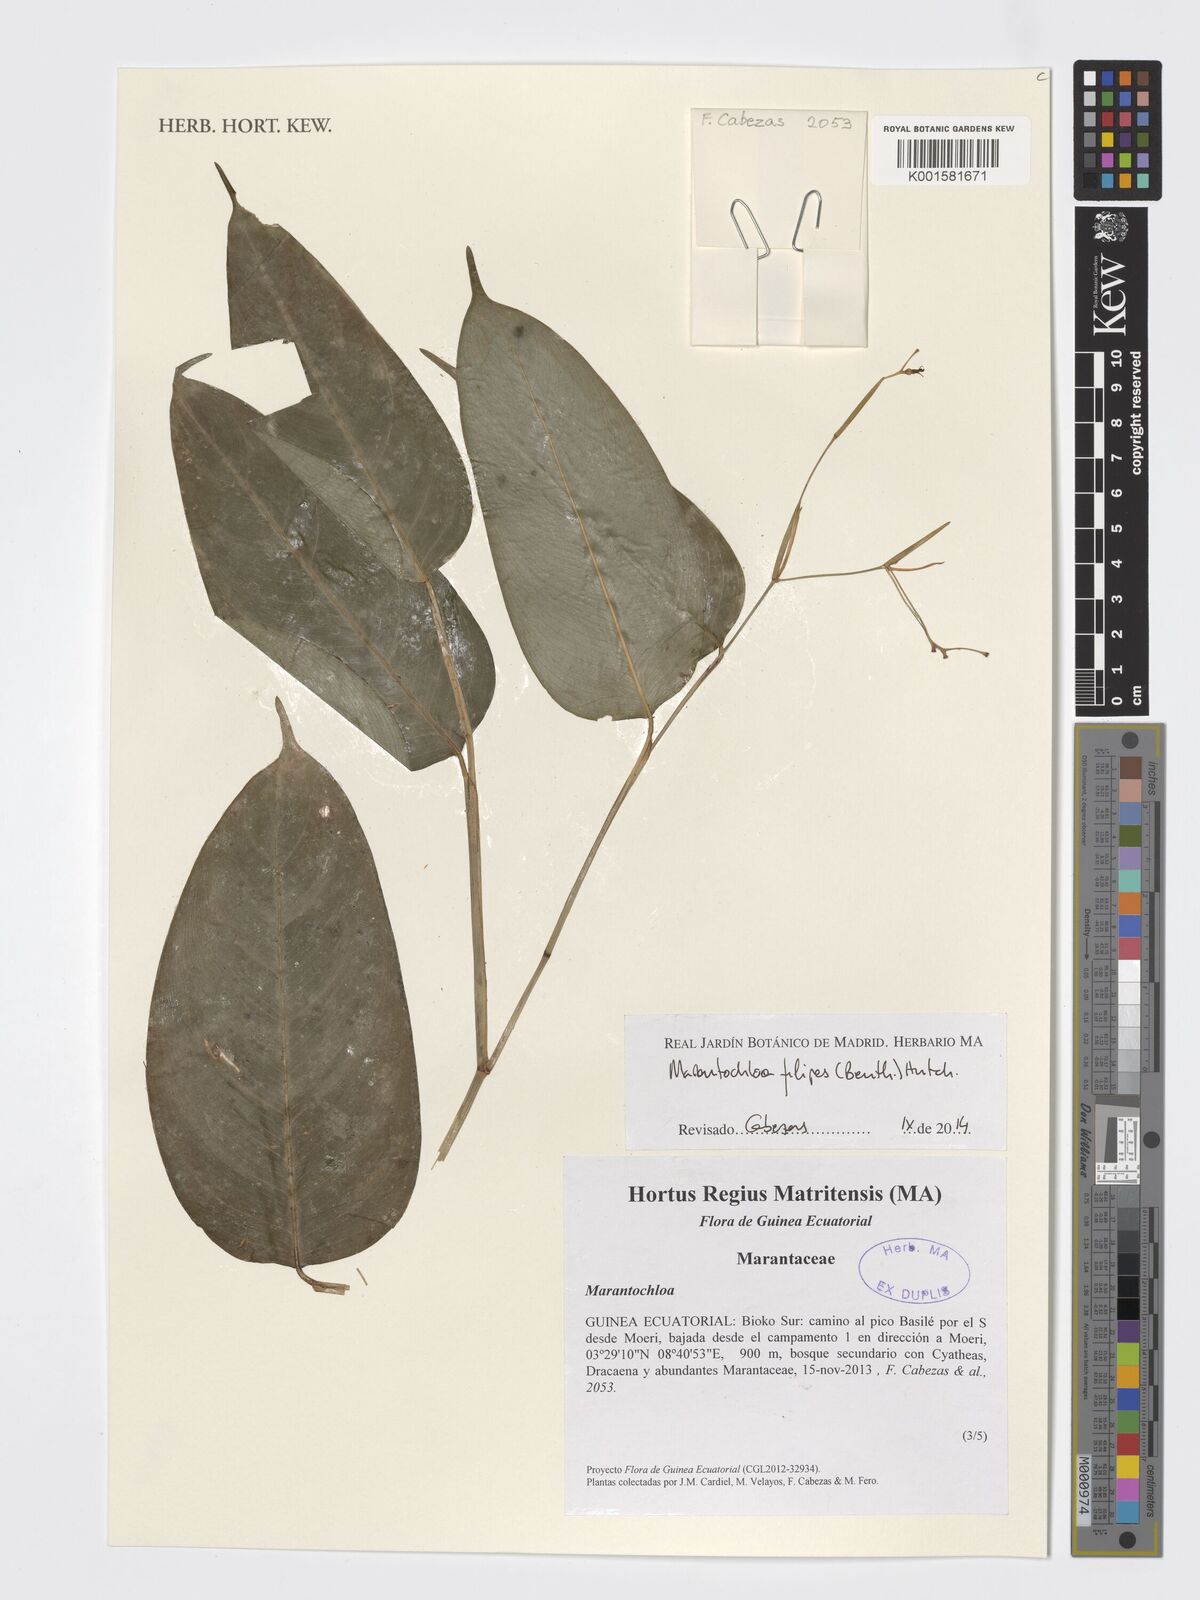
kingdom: Plantae
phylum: Tracheophyta
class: Liliopsida
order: Zingiberales
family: Marantaceae
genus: Marantochloa
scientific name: Marantochloa filipes
